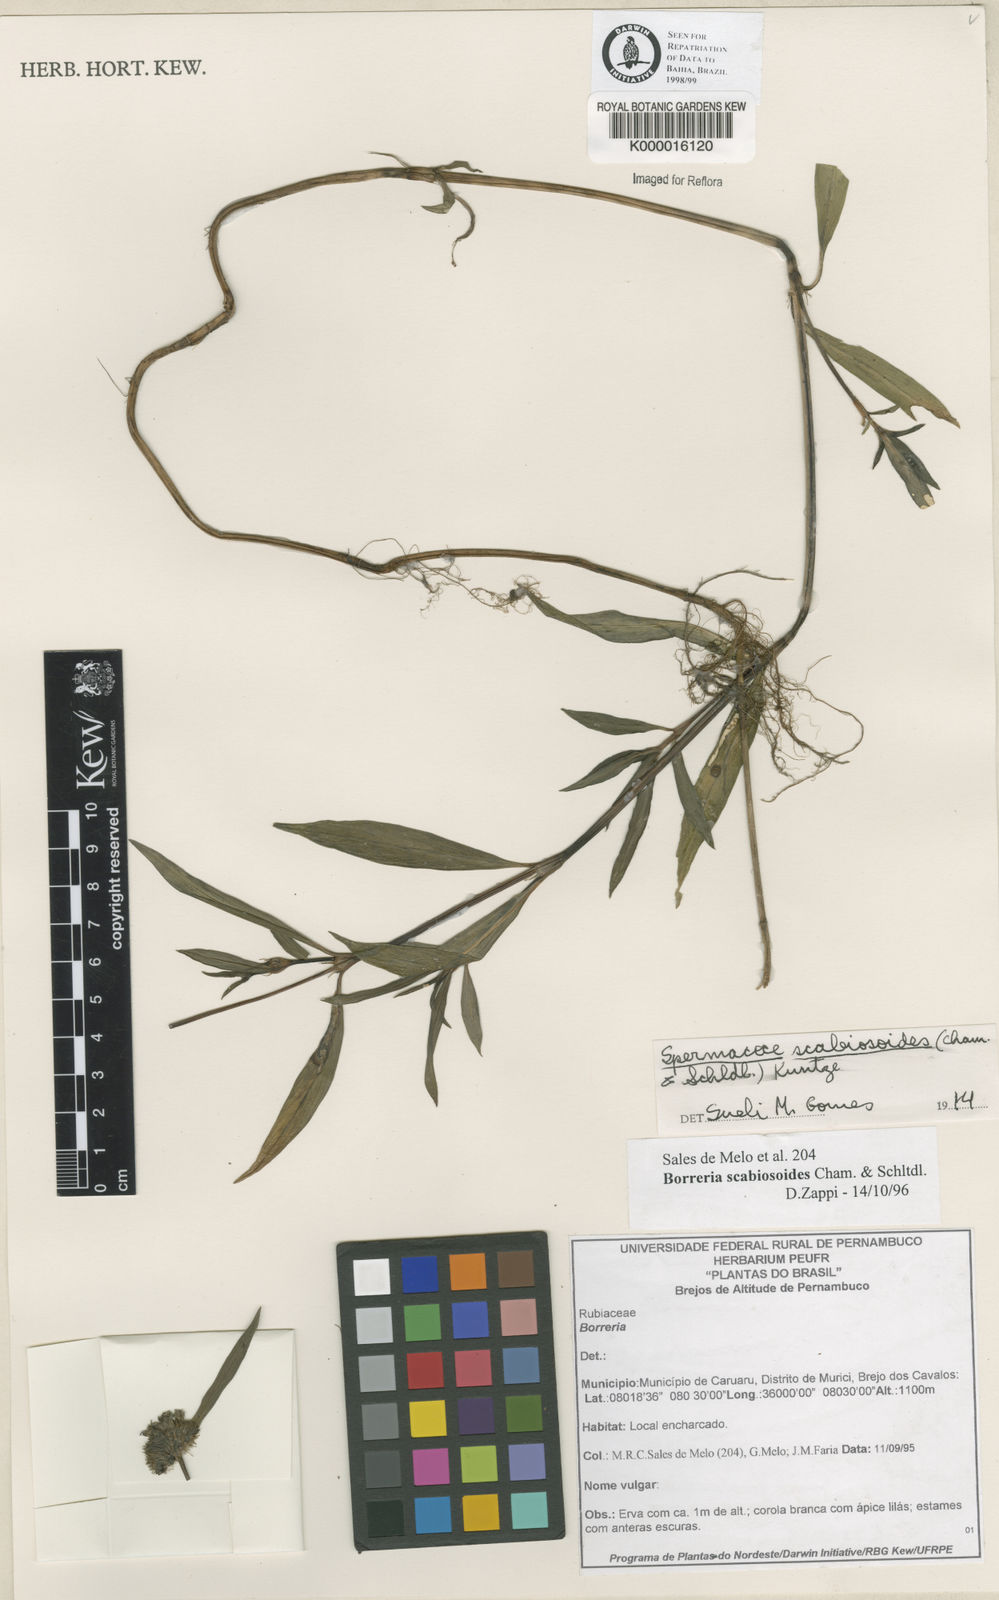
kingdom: Plantae
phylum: Tracheophyta
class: Magnoliopsida
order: Gentianales
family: Rubiaceae
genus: Spermacoce
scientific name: Spermacoce scabiosoides
